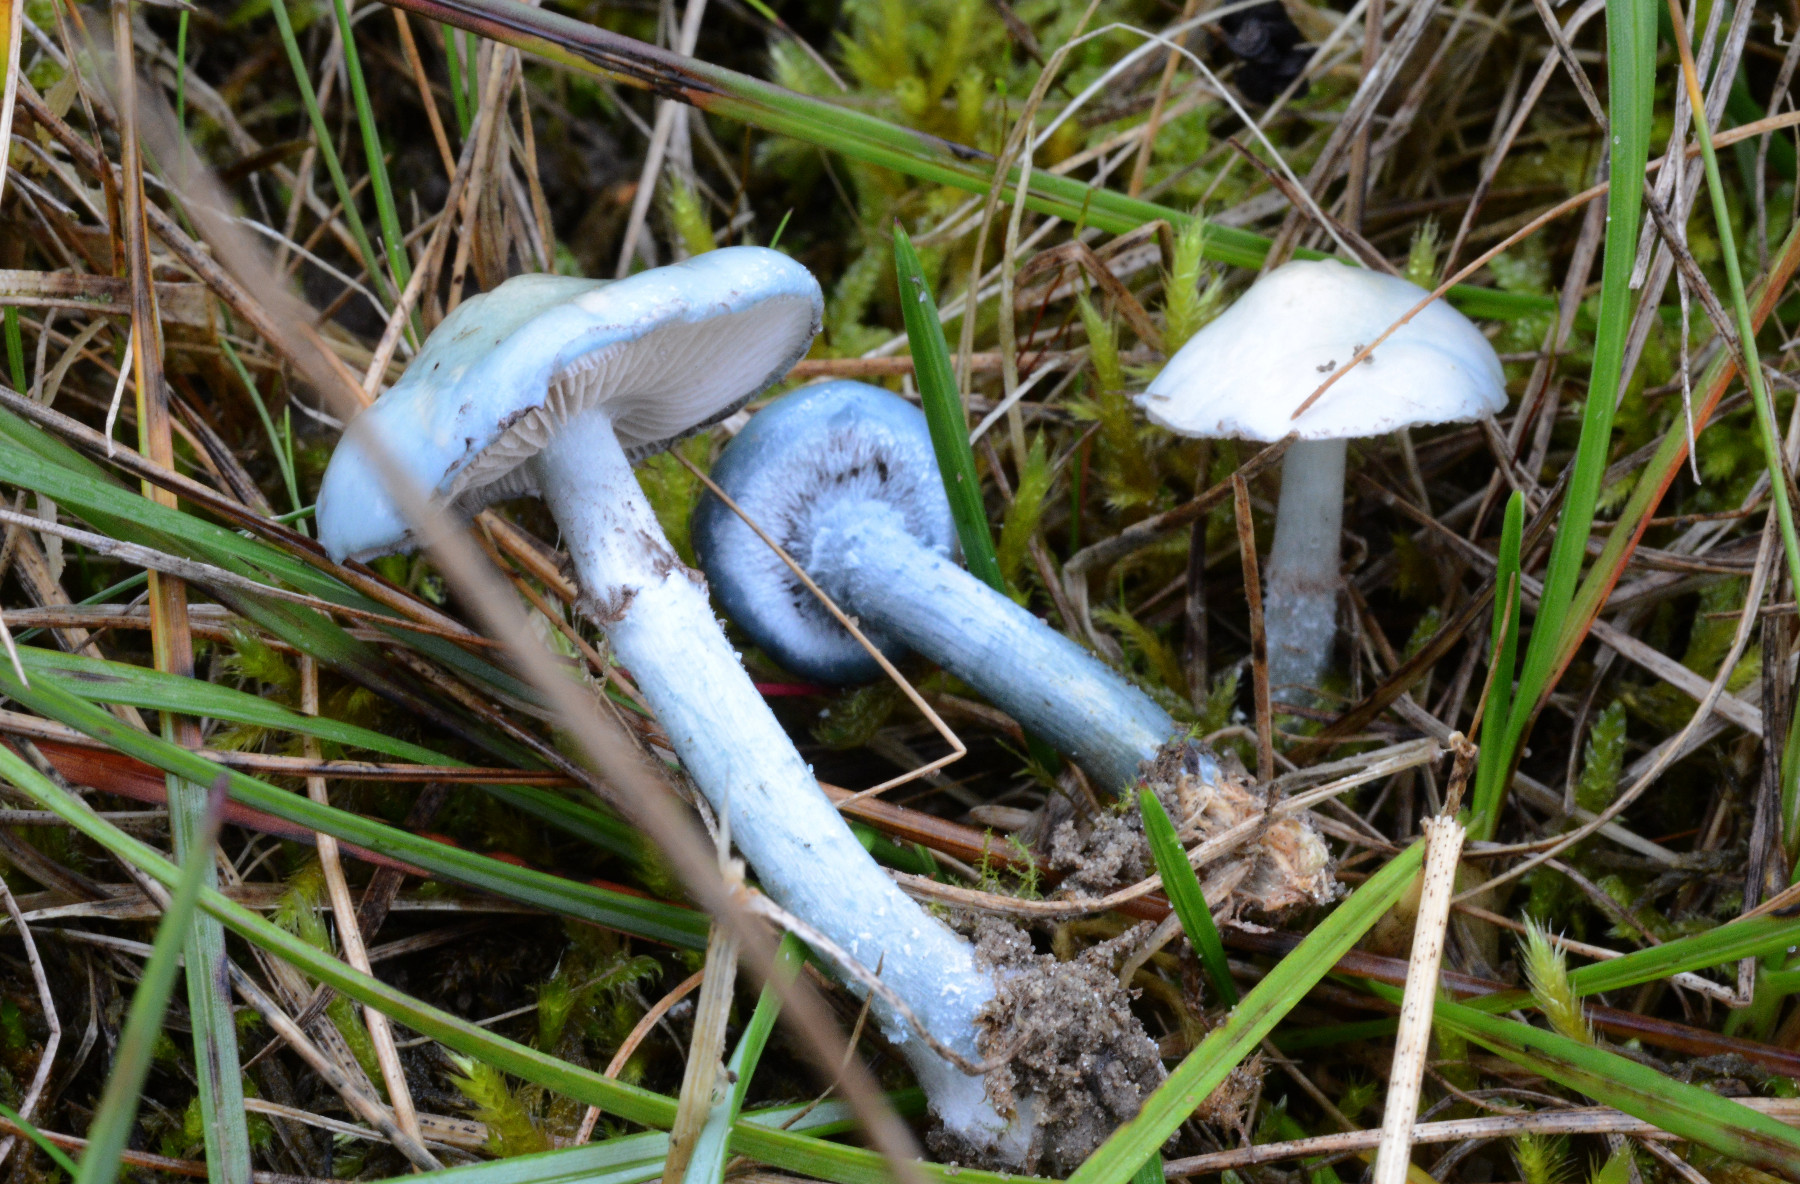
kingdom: Fungi
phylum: Basidiomycota
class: Agaricomycetes
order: Agaricales
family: Strophariaceae
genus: Stropharia
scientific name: Stropharia pseudocyanea
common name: blegblå bredblad
